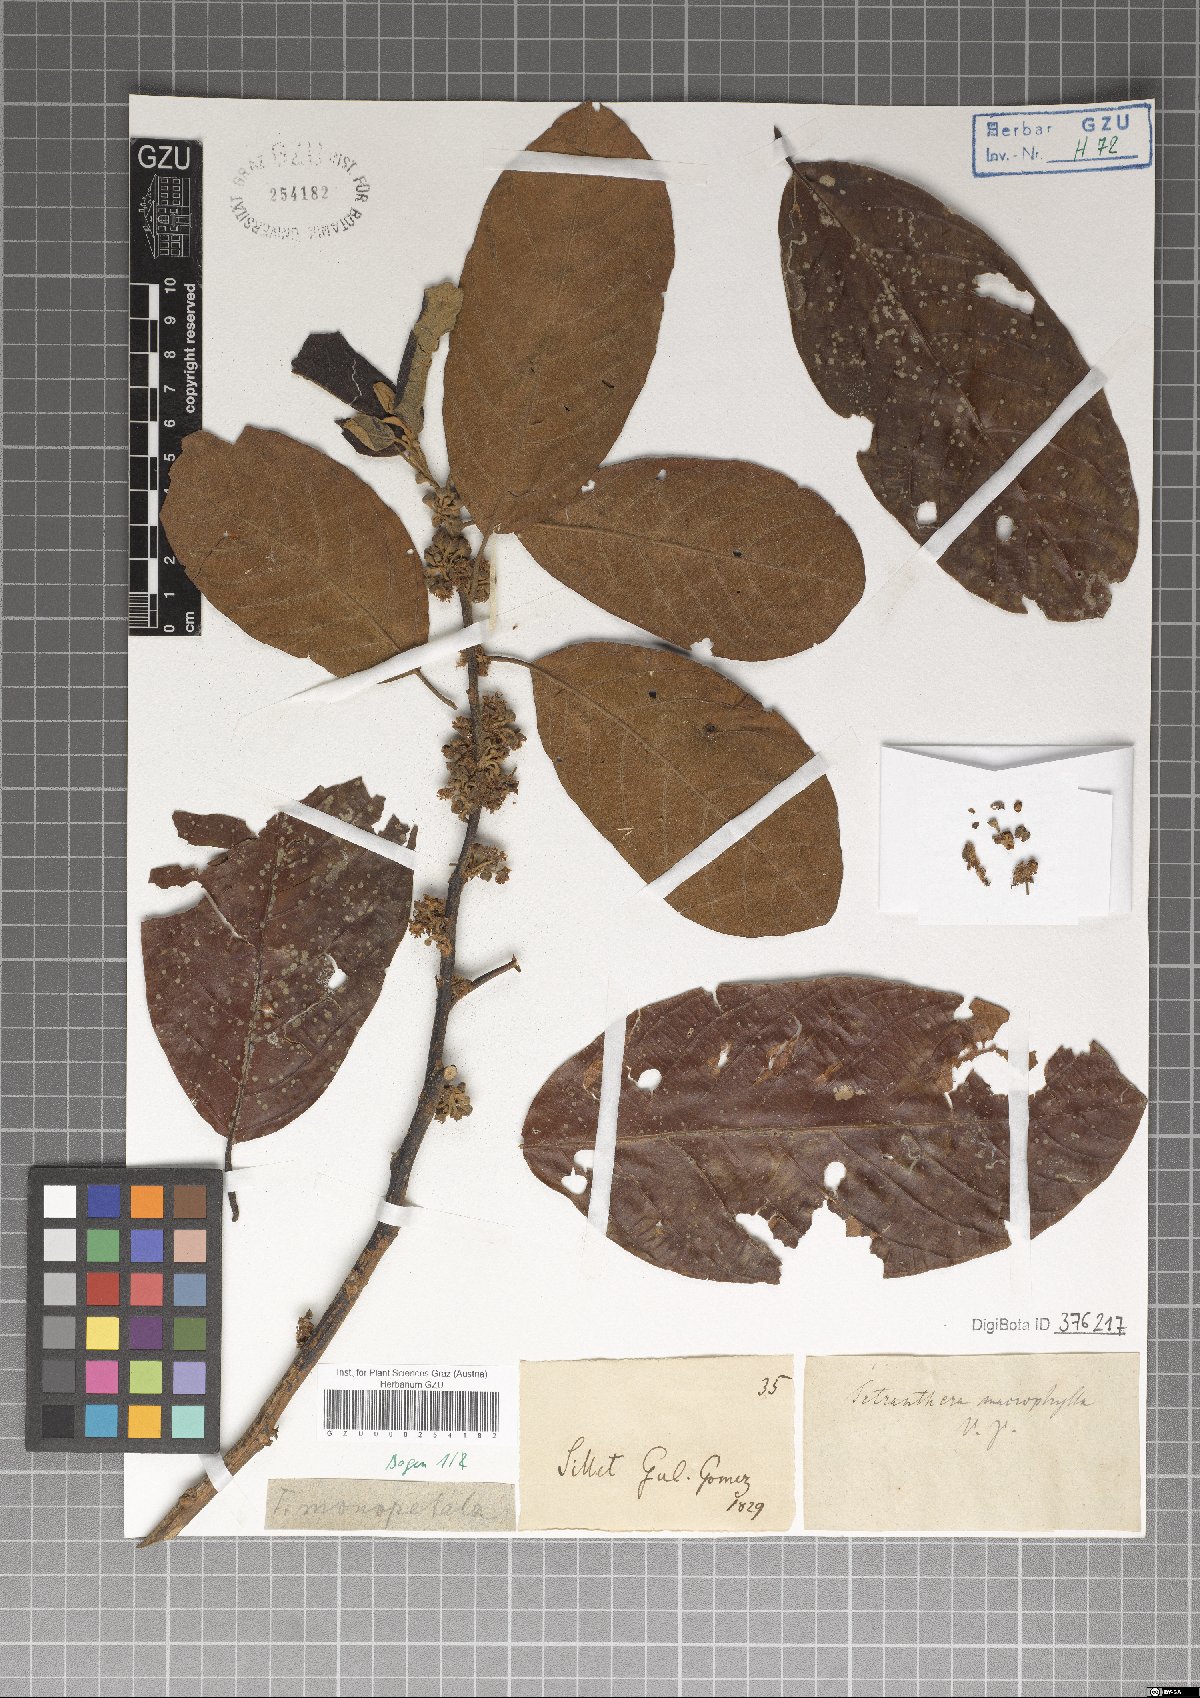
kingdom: Plantae
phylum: Tracheophyta
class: Magnoliopsida
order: Laurales
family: Lauraceae
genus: Litsea
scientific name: Litsea monopetala
